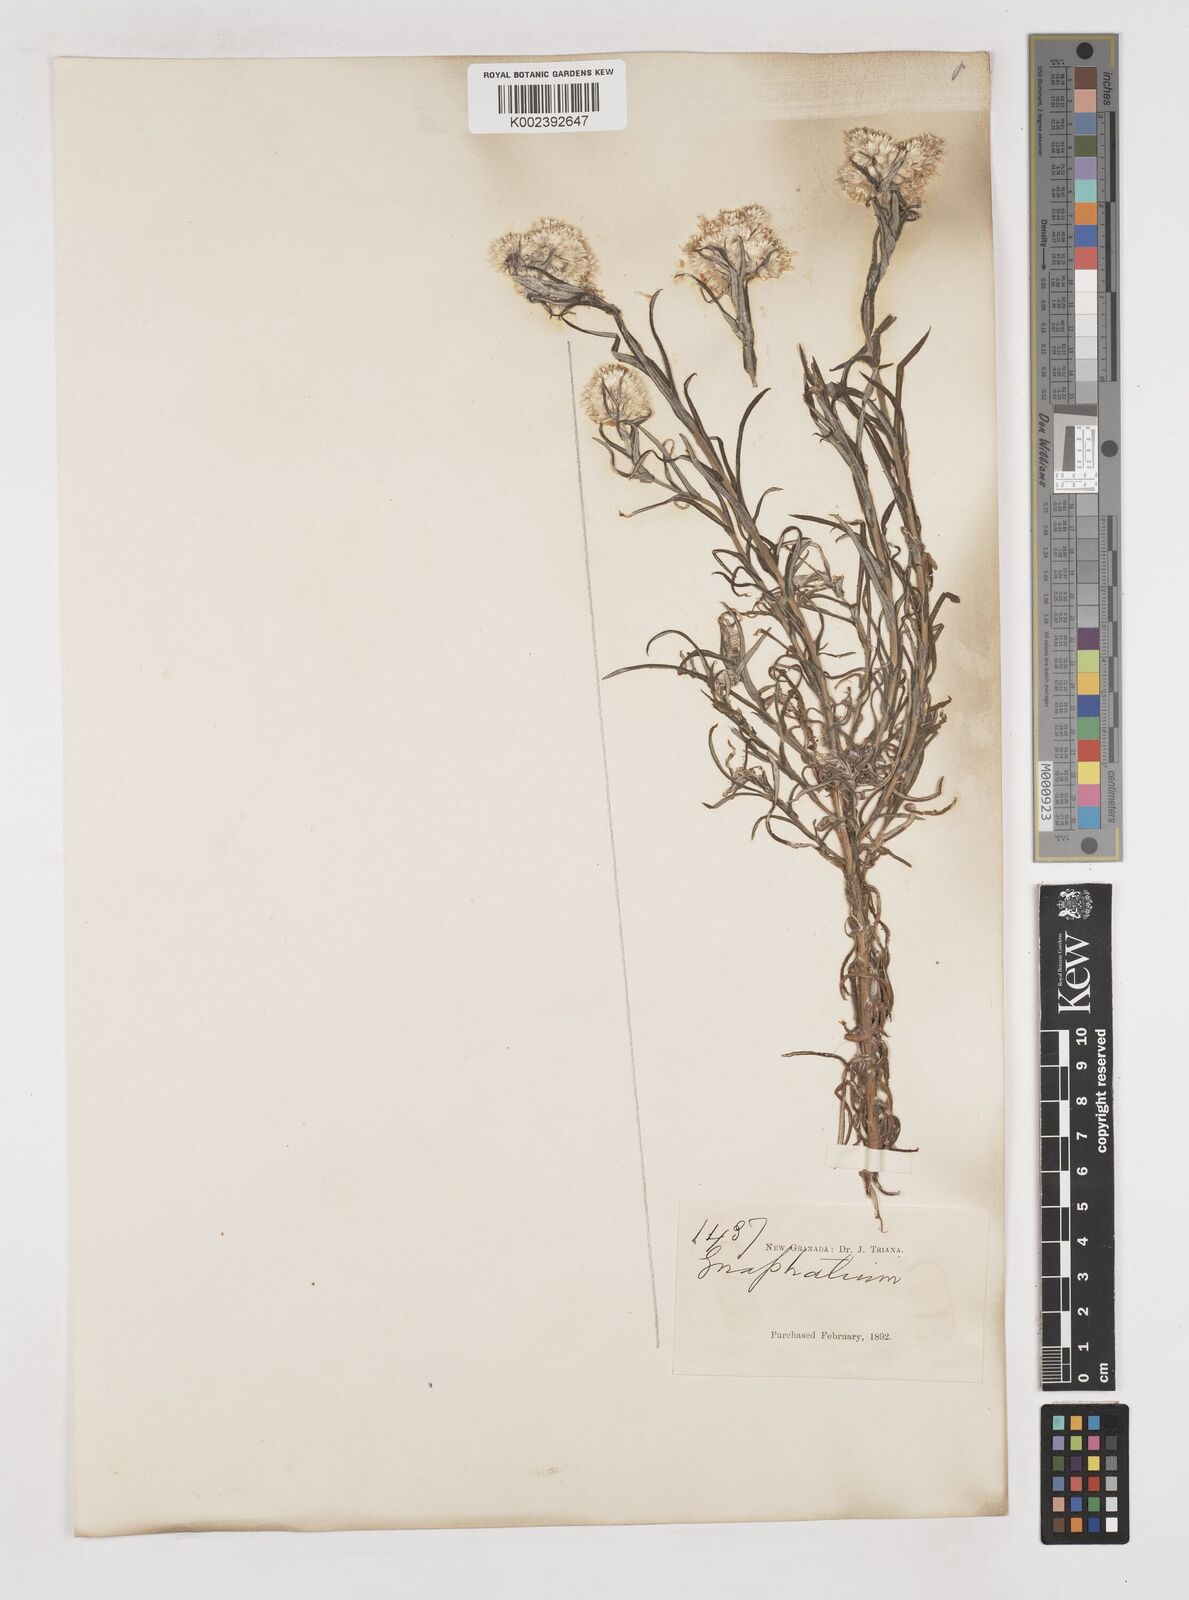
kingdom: Plantae
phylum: Tracheophyta
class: Magnoliopsida
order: Asterales
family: Asteraceae
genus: Gnaphalium
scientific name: Gnaphalium
